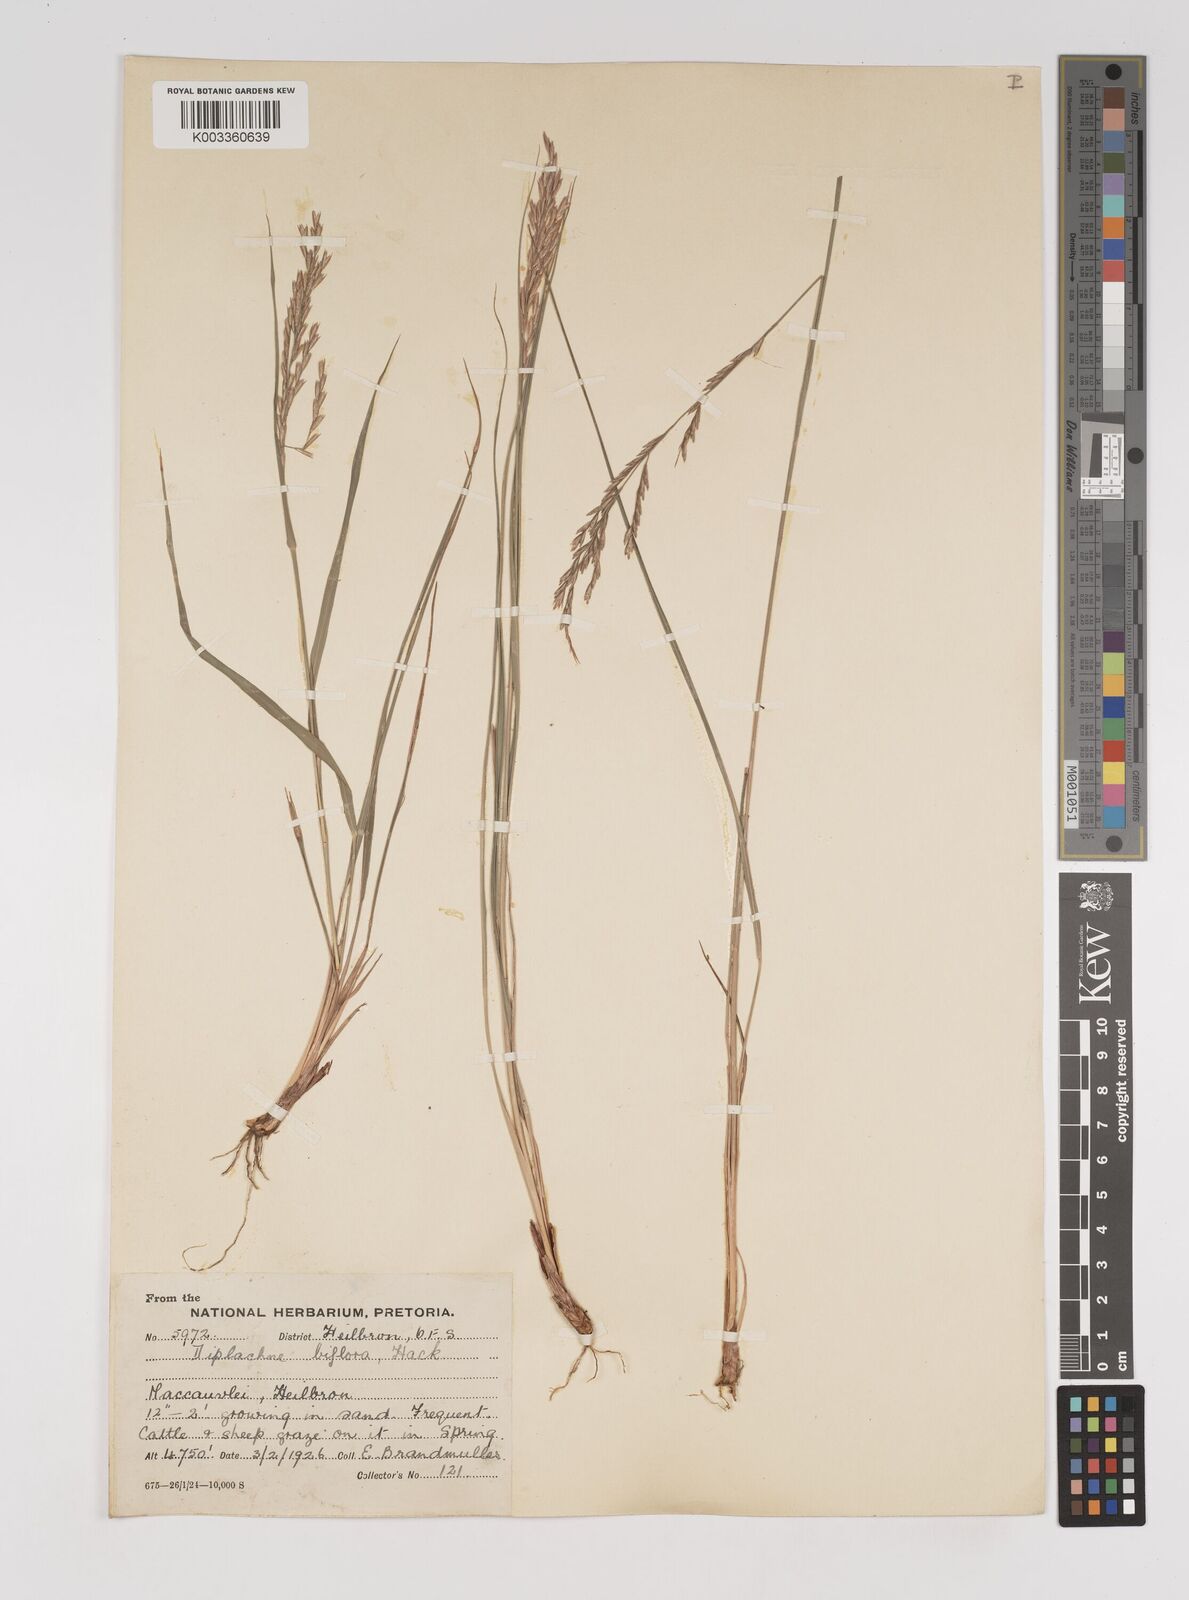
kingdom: Plantae
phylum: Tracheophyta
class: Liliopsida
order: Poales
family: Poaceae
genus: Bewsia
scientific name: Bewsia biflora
